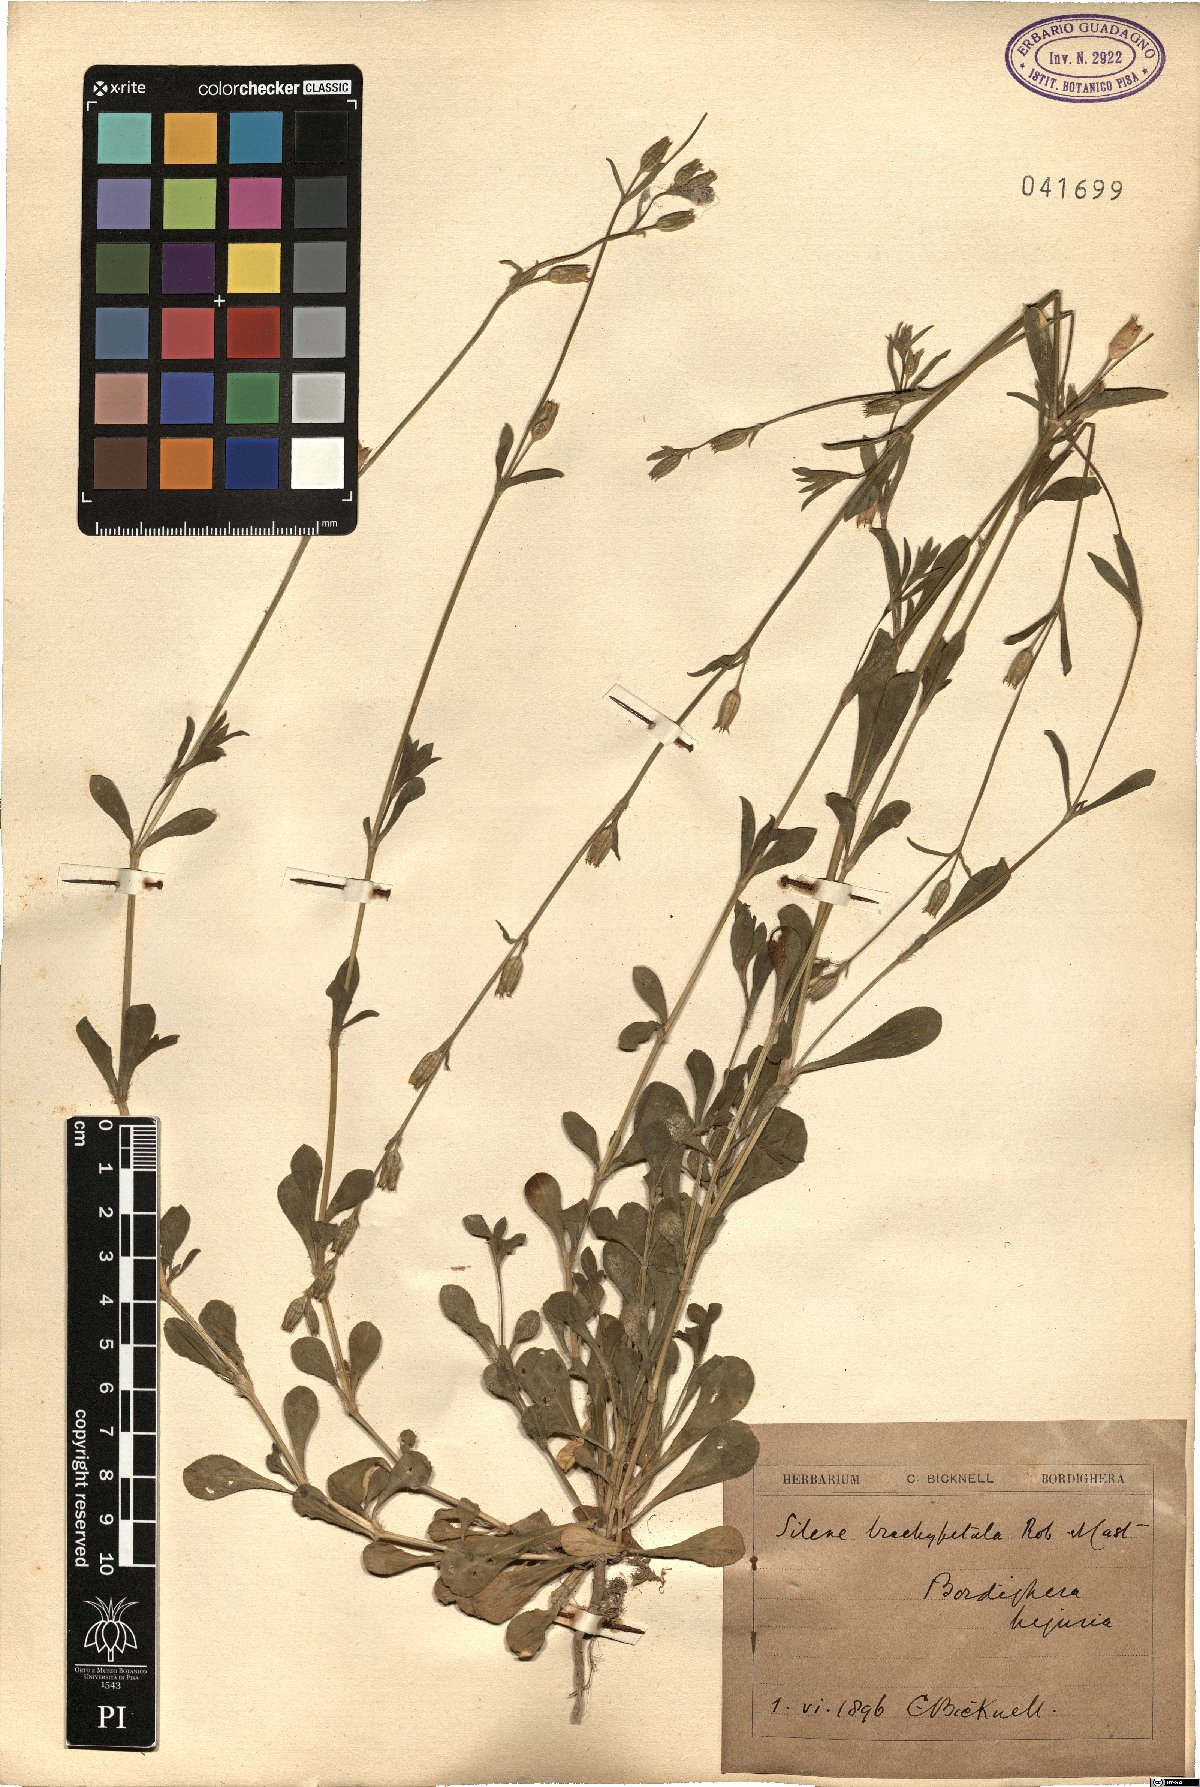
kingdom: Plantae
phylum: Tracheophyta
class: Magnoliopsida
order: Caryophyllales
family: Caryophyllaceae
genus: Silene
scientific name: Silene nocturna
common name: Mediterranean catchfly
